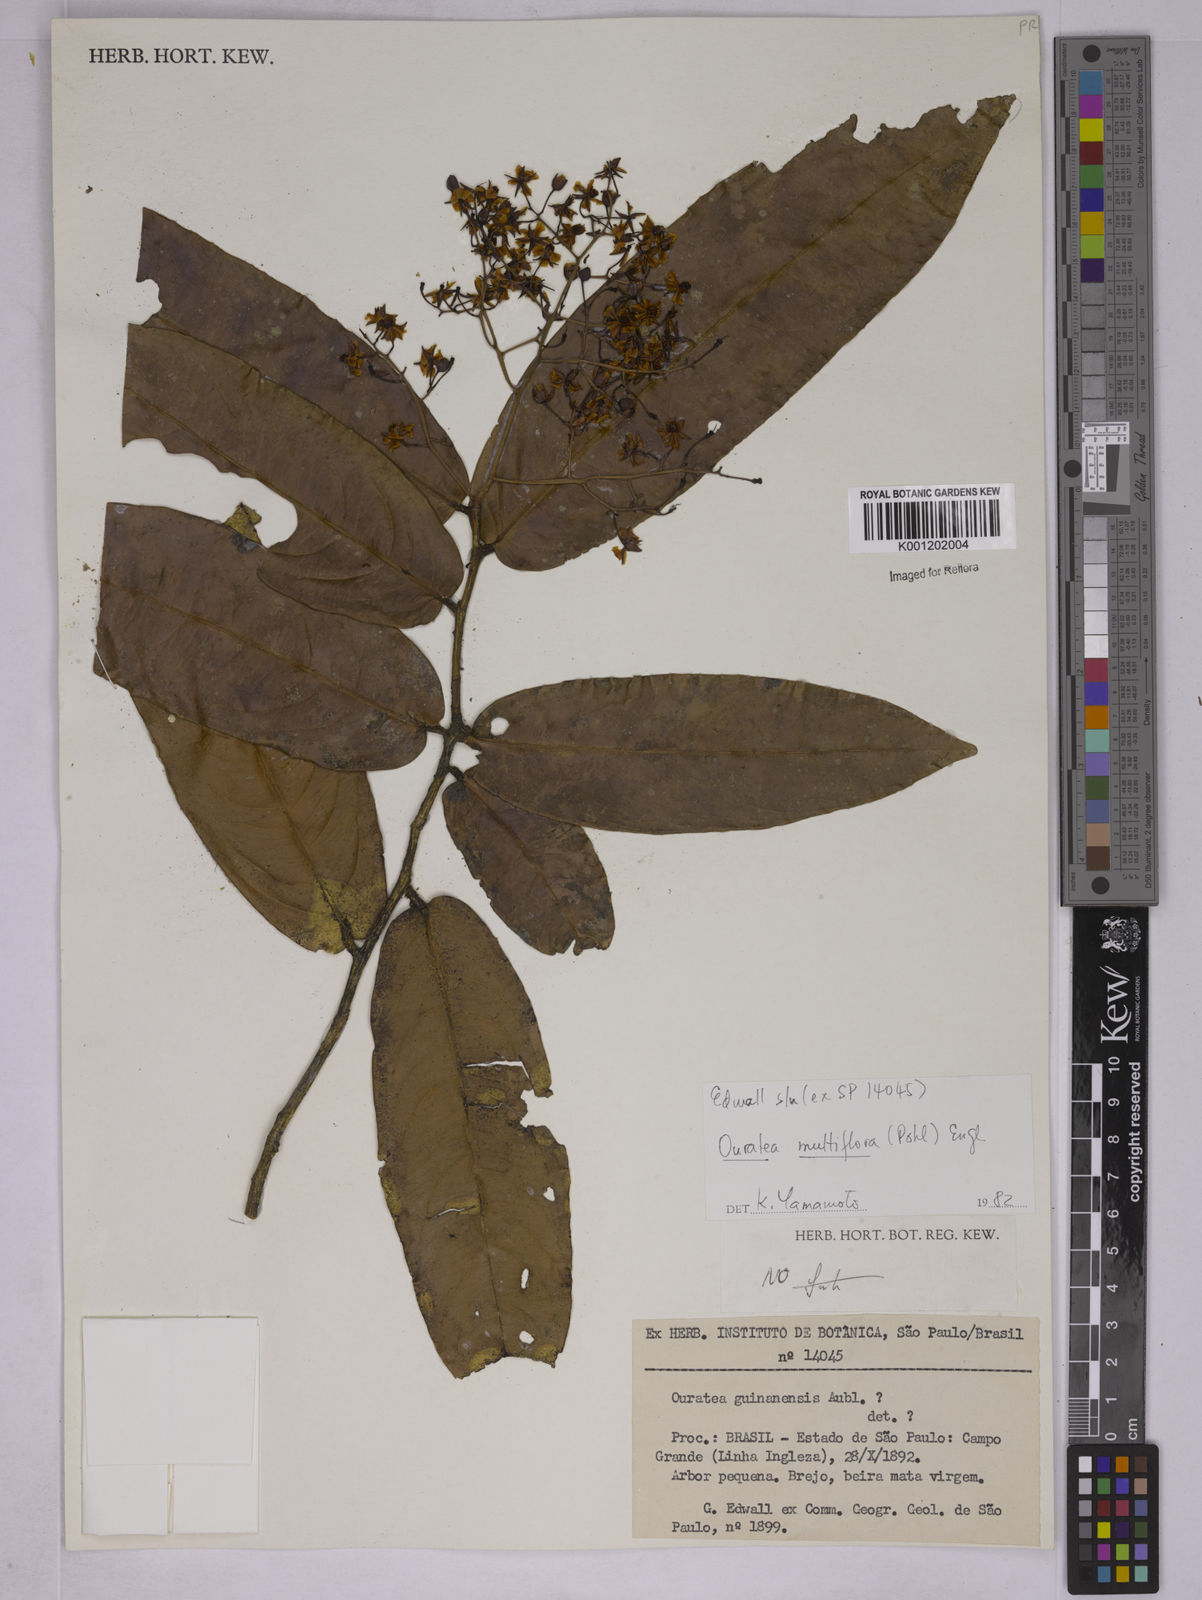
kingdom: Plantae
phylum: Tracheophyta
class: Magnoliopsida
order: Malpighiales
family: Ochnaceae
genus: Ouratea
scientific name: Ouratea multiflora
